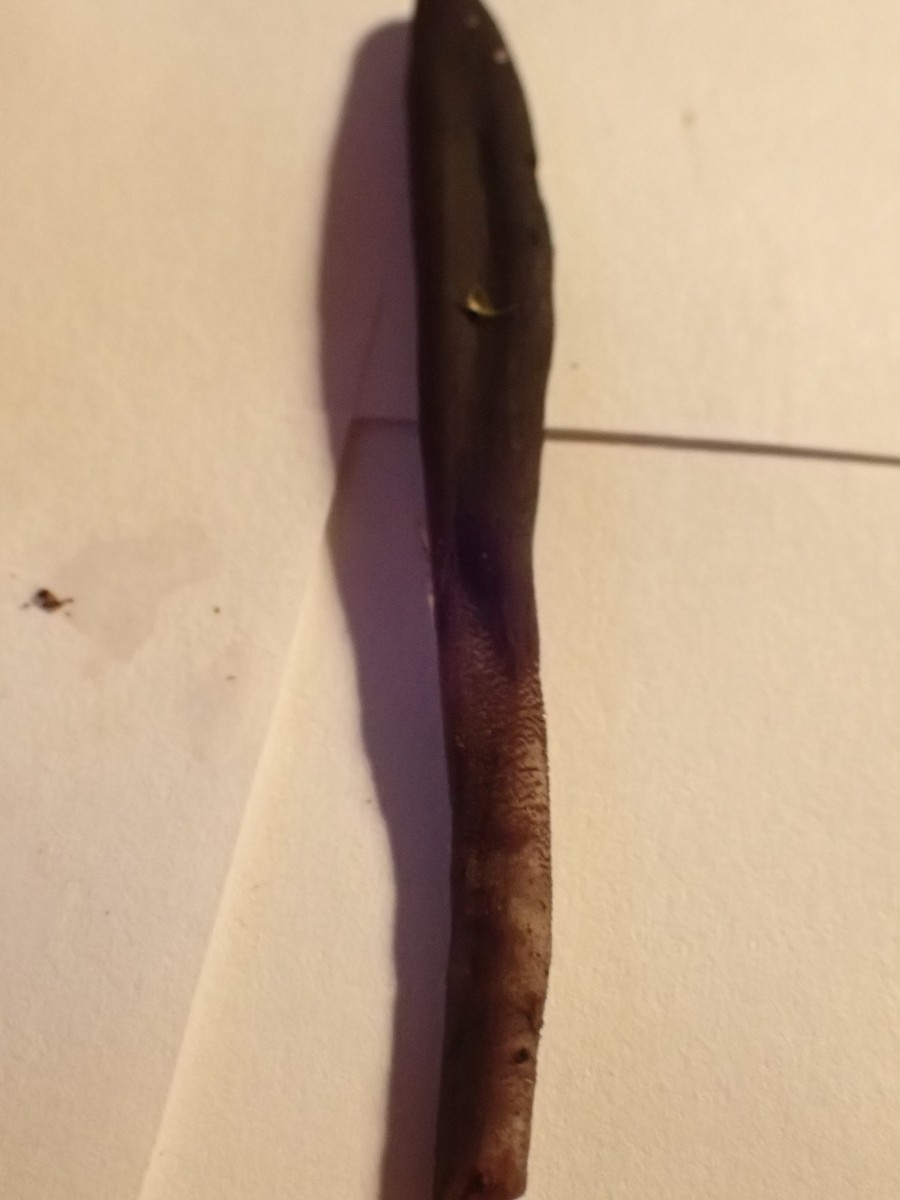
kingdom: Fungi
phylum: Ascomycota
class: Geoglossomycetes
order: Geoglossales
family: Geoglossaceae
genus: Geoglossum
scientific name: Geoglossum
